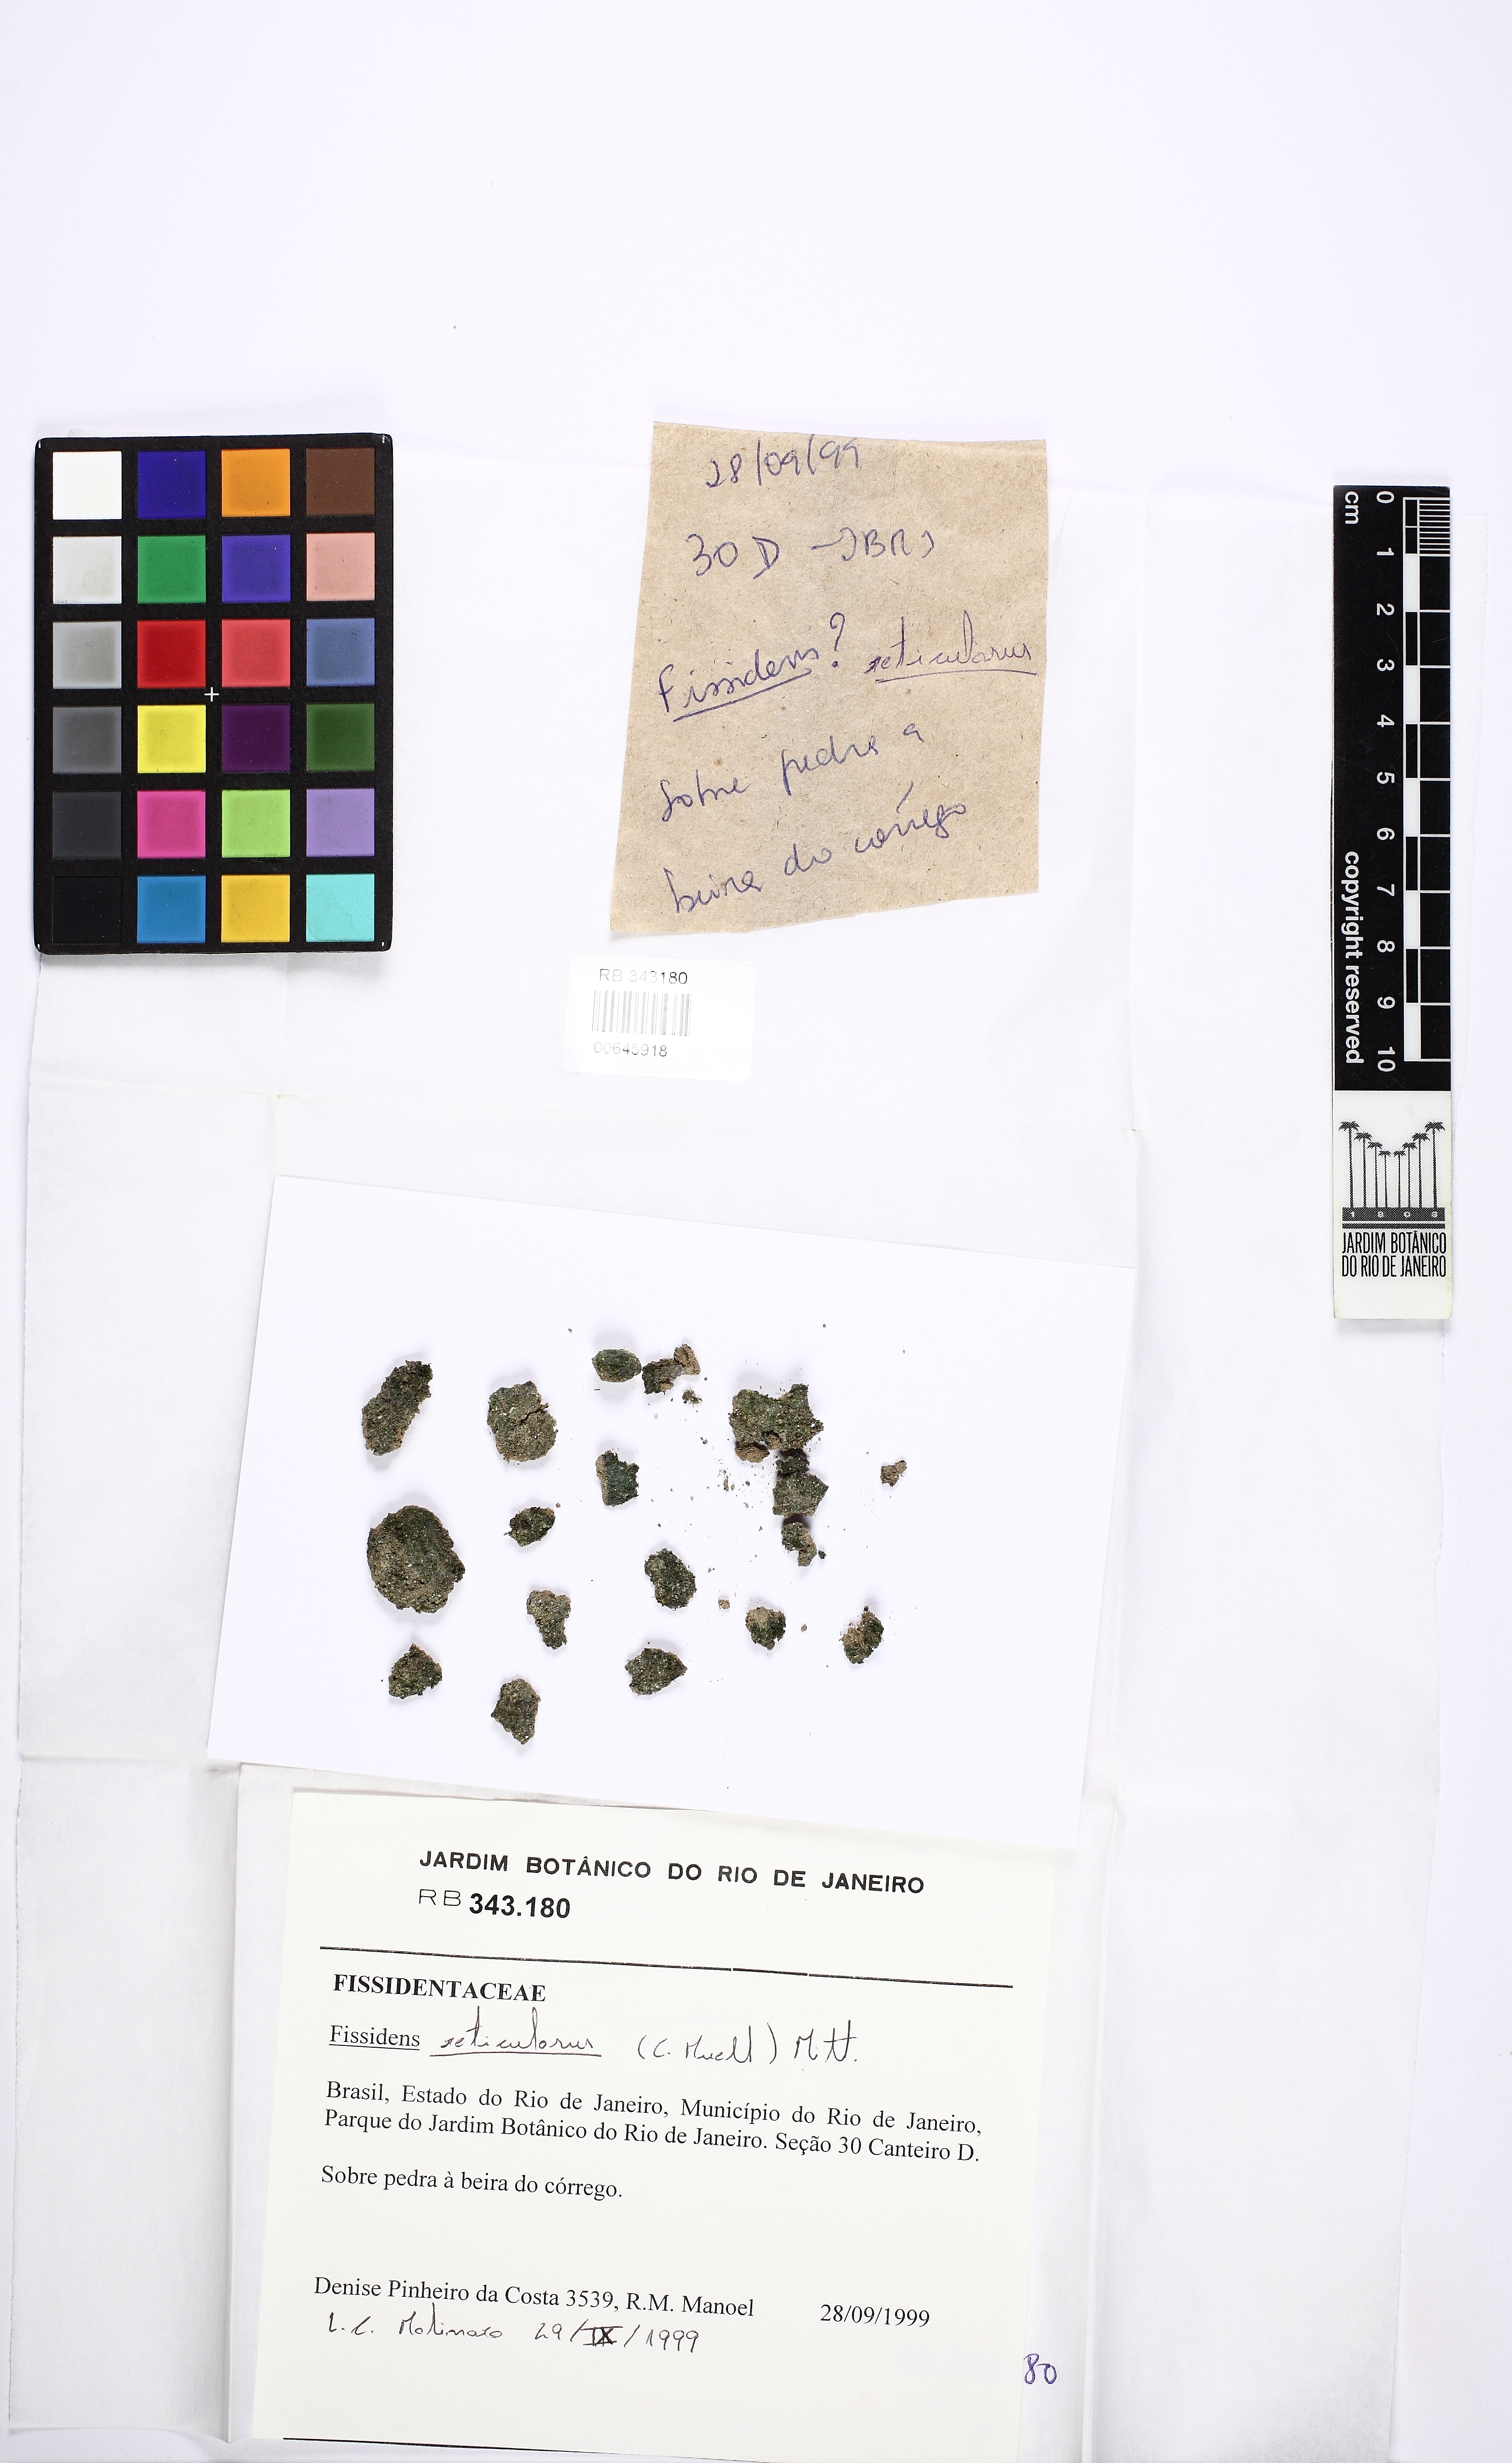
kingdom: Plantae
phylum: Bryophyta
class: Bryopsida
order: Dicranales
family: Fissidentaceae
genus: Fissidens
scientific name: Fissidens palmatus
